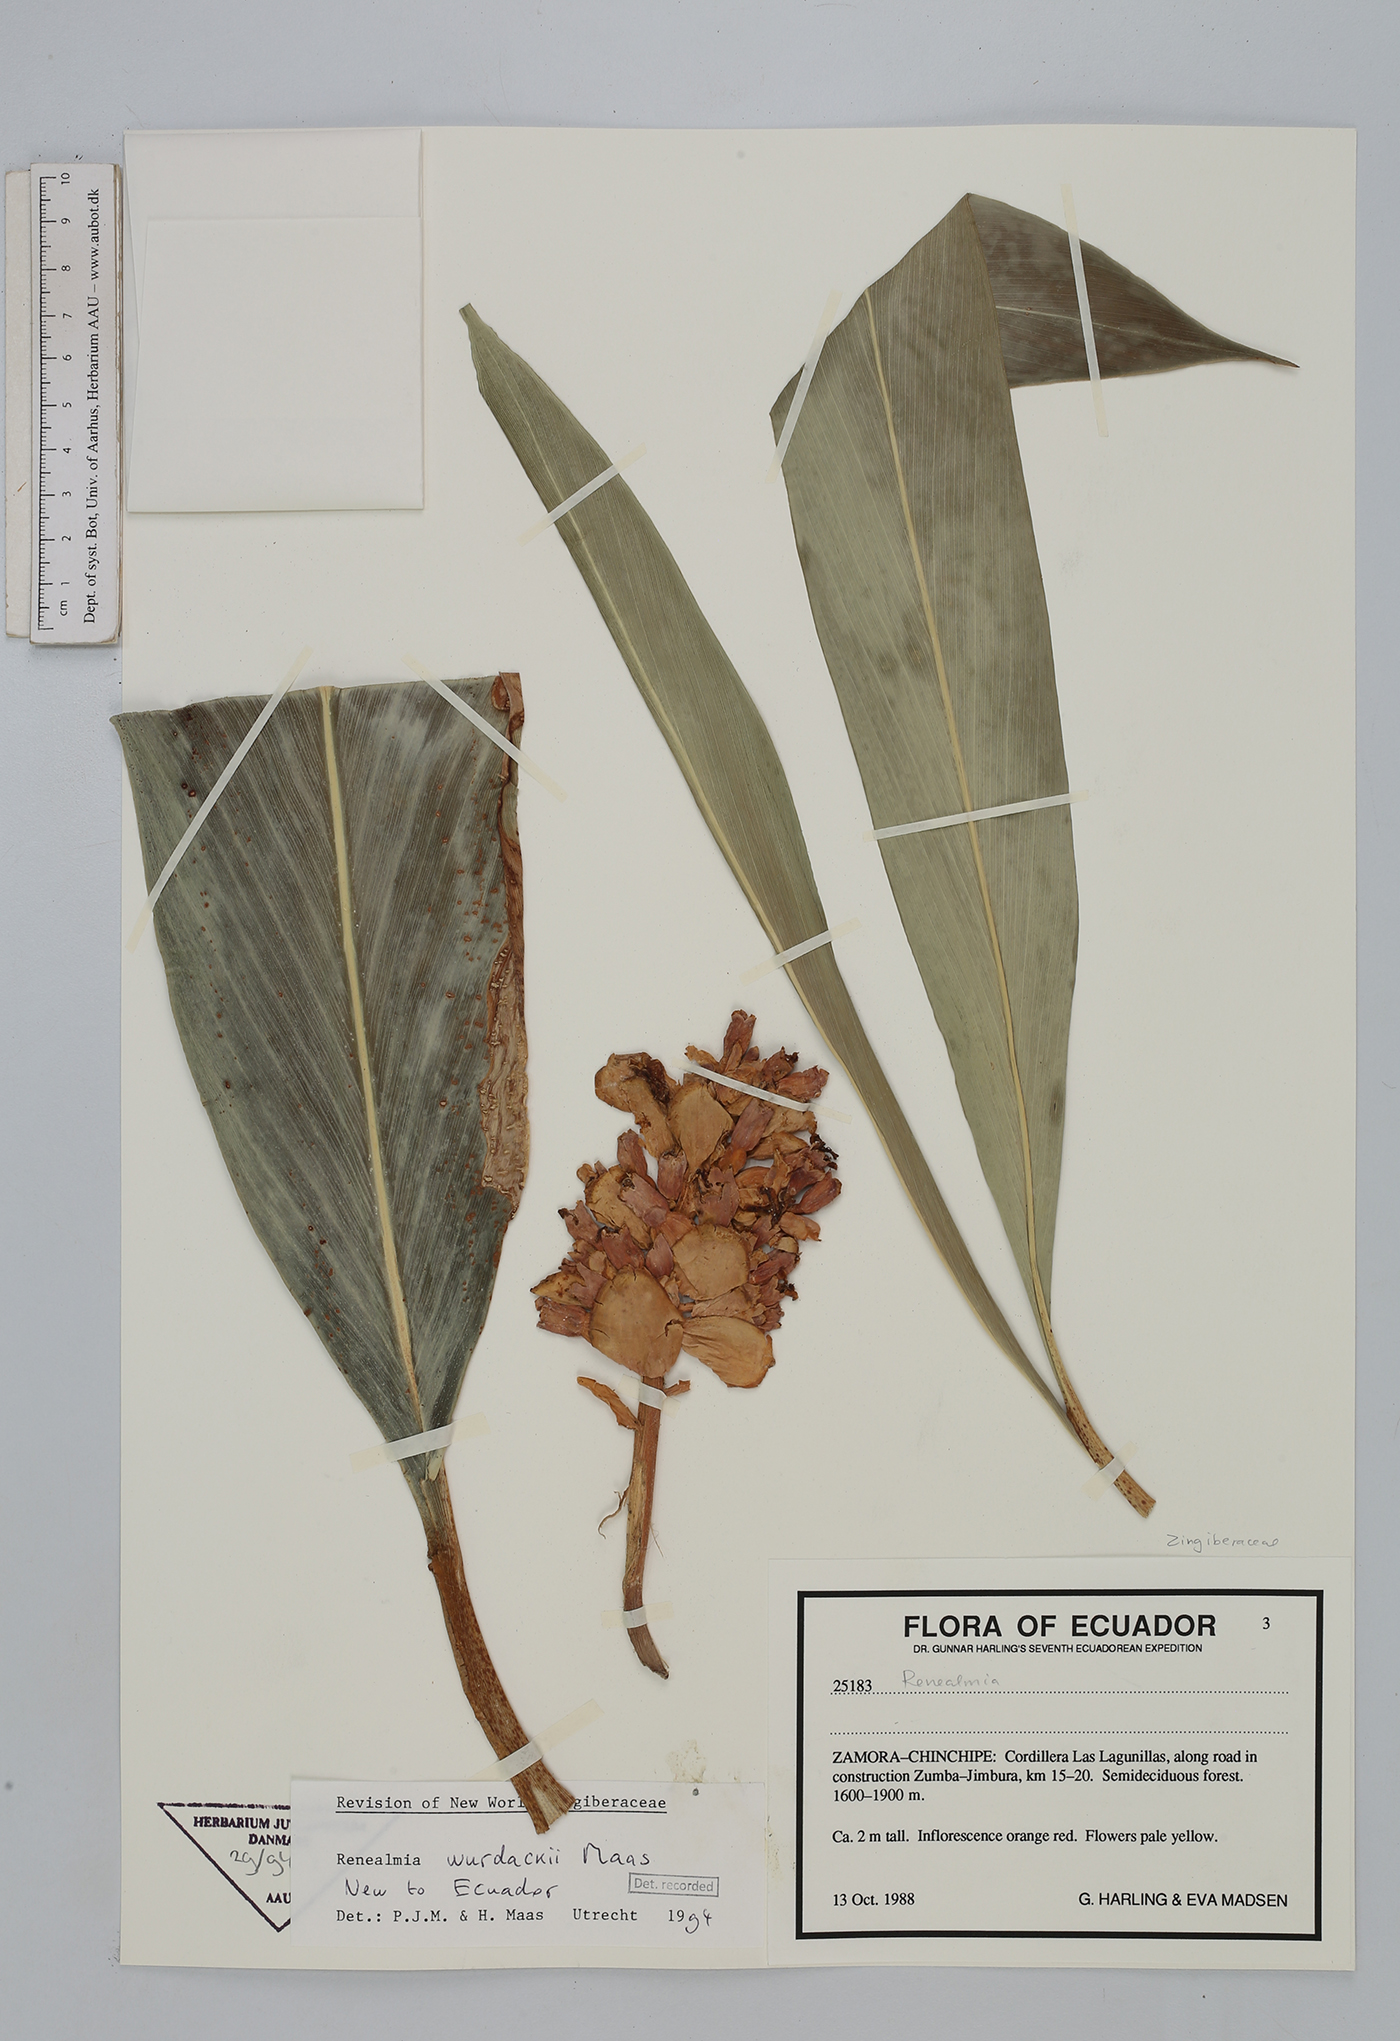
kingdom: Plantae
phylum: Tracheophyta
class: Liliopsida
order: Zingiberales
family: Zingiberaceae
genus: Renealmia
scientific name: Renealmia wurdackii
